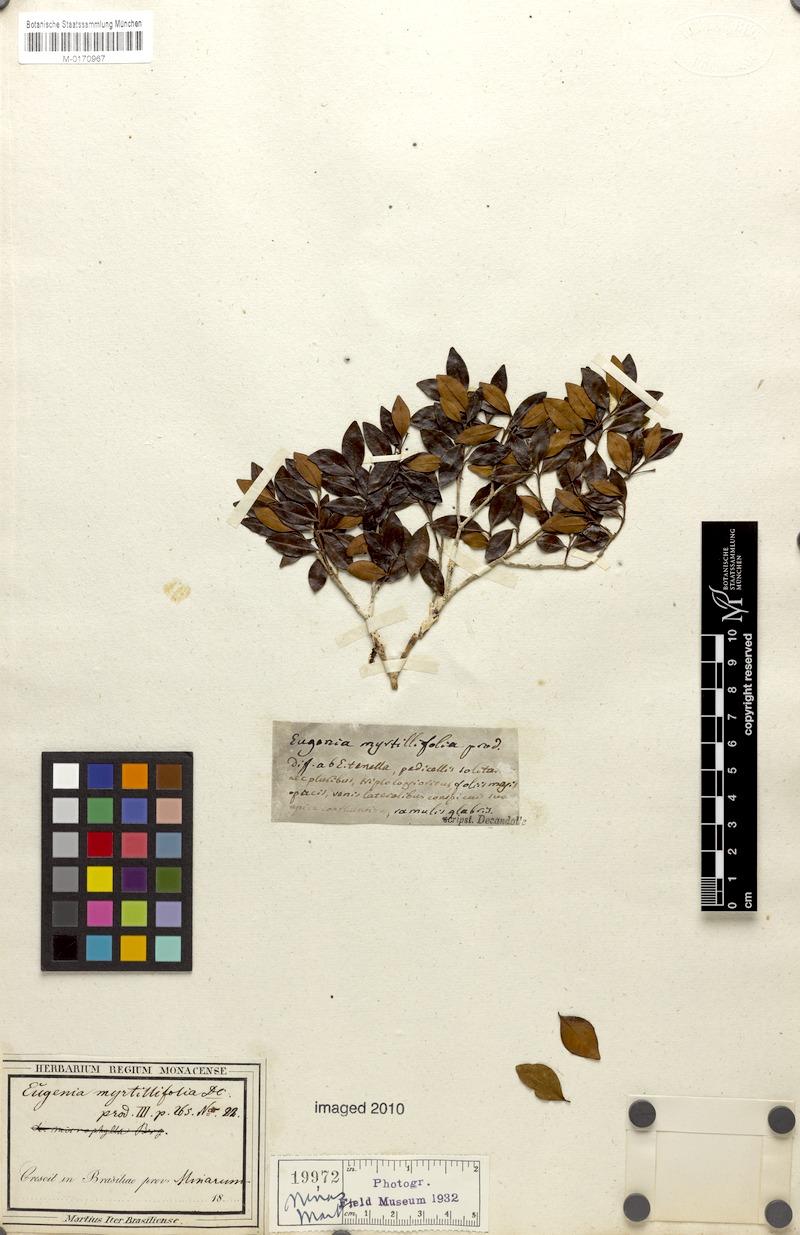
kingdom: Plantae
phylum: Tracheophyta
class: Magnoliopsida
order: Myrtales
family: Myrtaceae
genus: Eugenia
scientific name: Eugenia punicifolia
